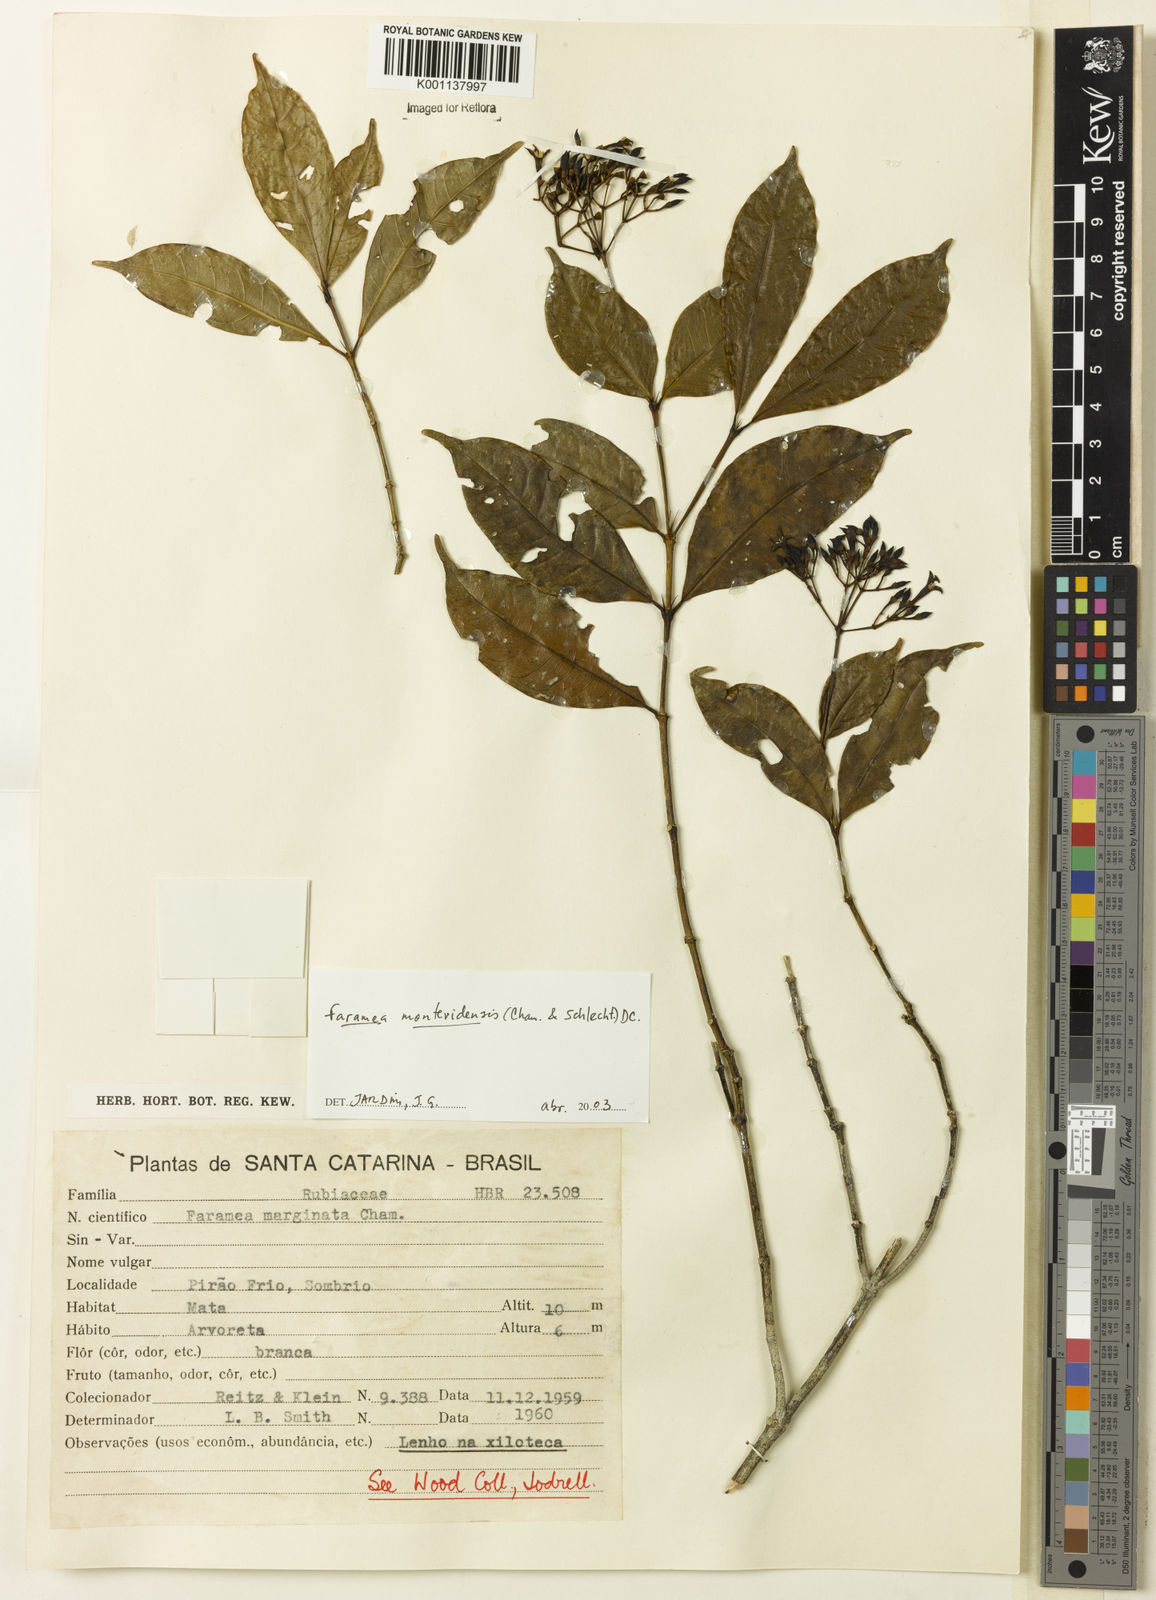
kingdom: Plantae
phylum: Tracheophyta
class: Magnoliopsida
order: Gentianales
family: Rubiaceae
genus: Faramea
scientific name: Faramea montevidensis
